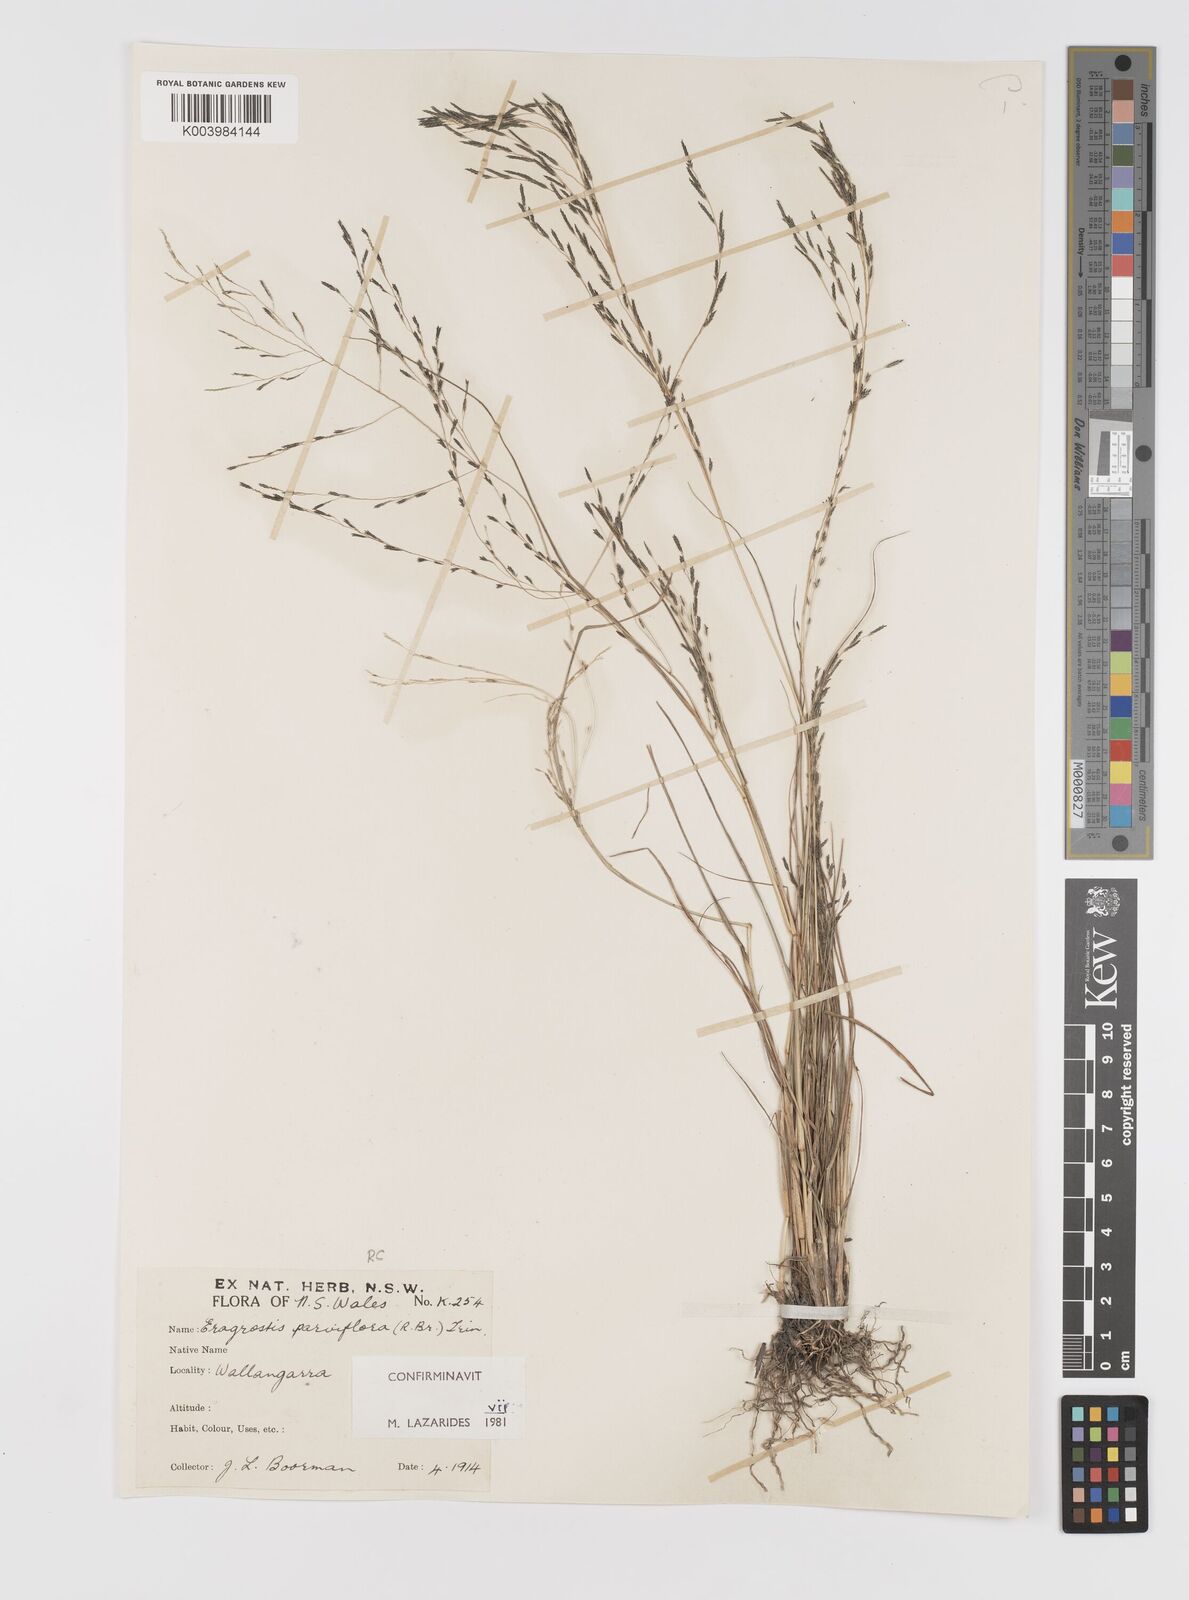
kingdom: Plantae
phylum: Tracheophyta
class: Liliopsida
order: Poales
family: Poaceae
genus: Eragrostis
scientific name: Eragrostis parviflora
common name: Weeping love-grass
